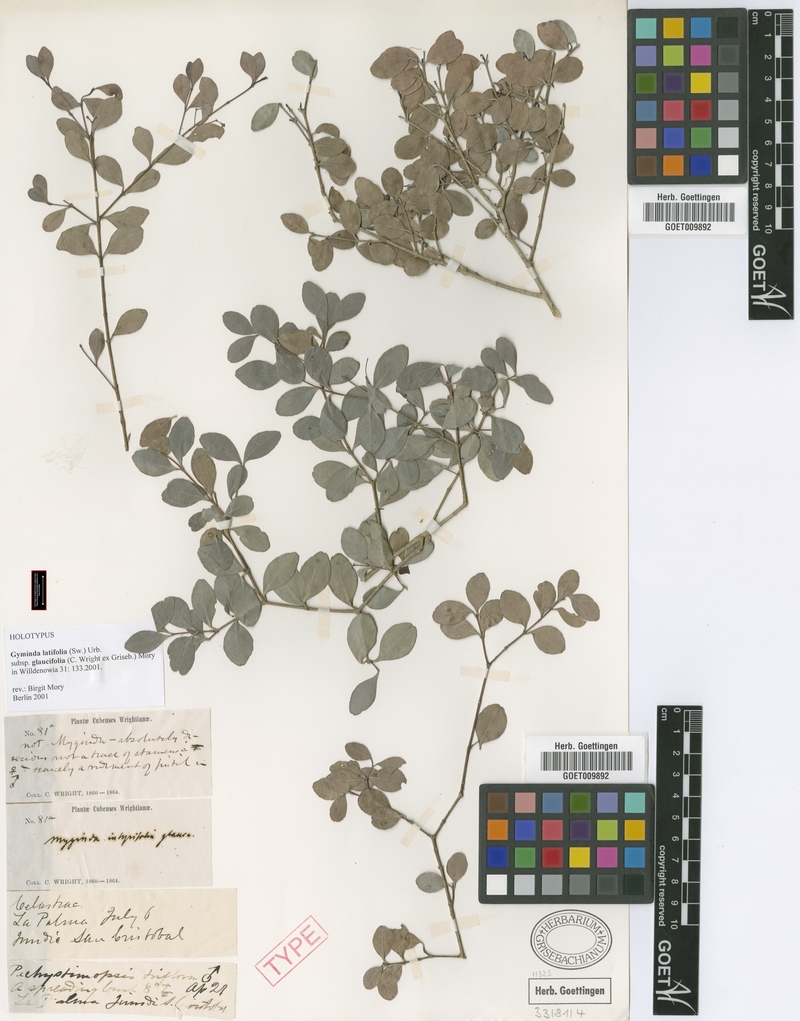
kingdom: Plantae
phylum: Tracheophyta
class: Magnoliopsida
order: Celastrales
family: Celastraceae
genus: Gyminda
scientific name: Gyminda latifolia
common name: False boxwood
